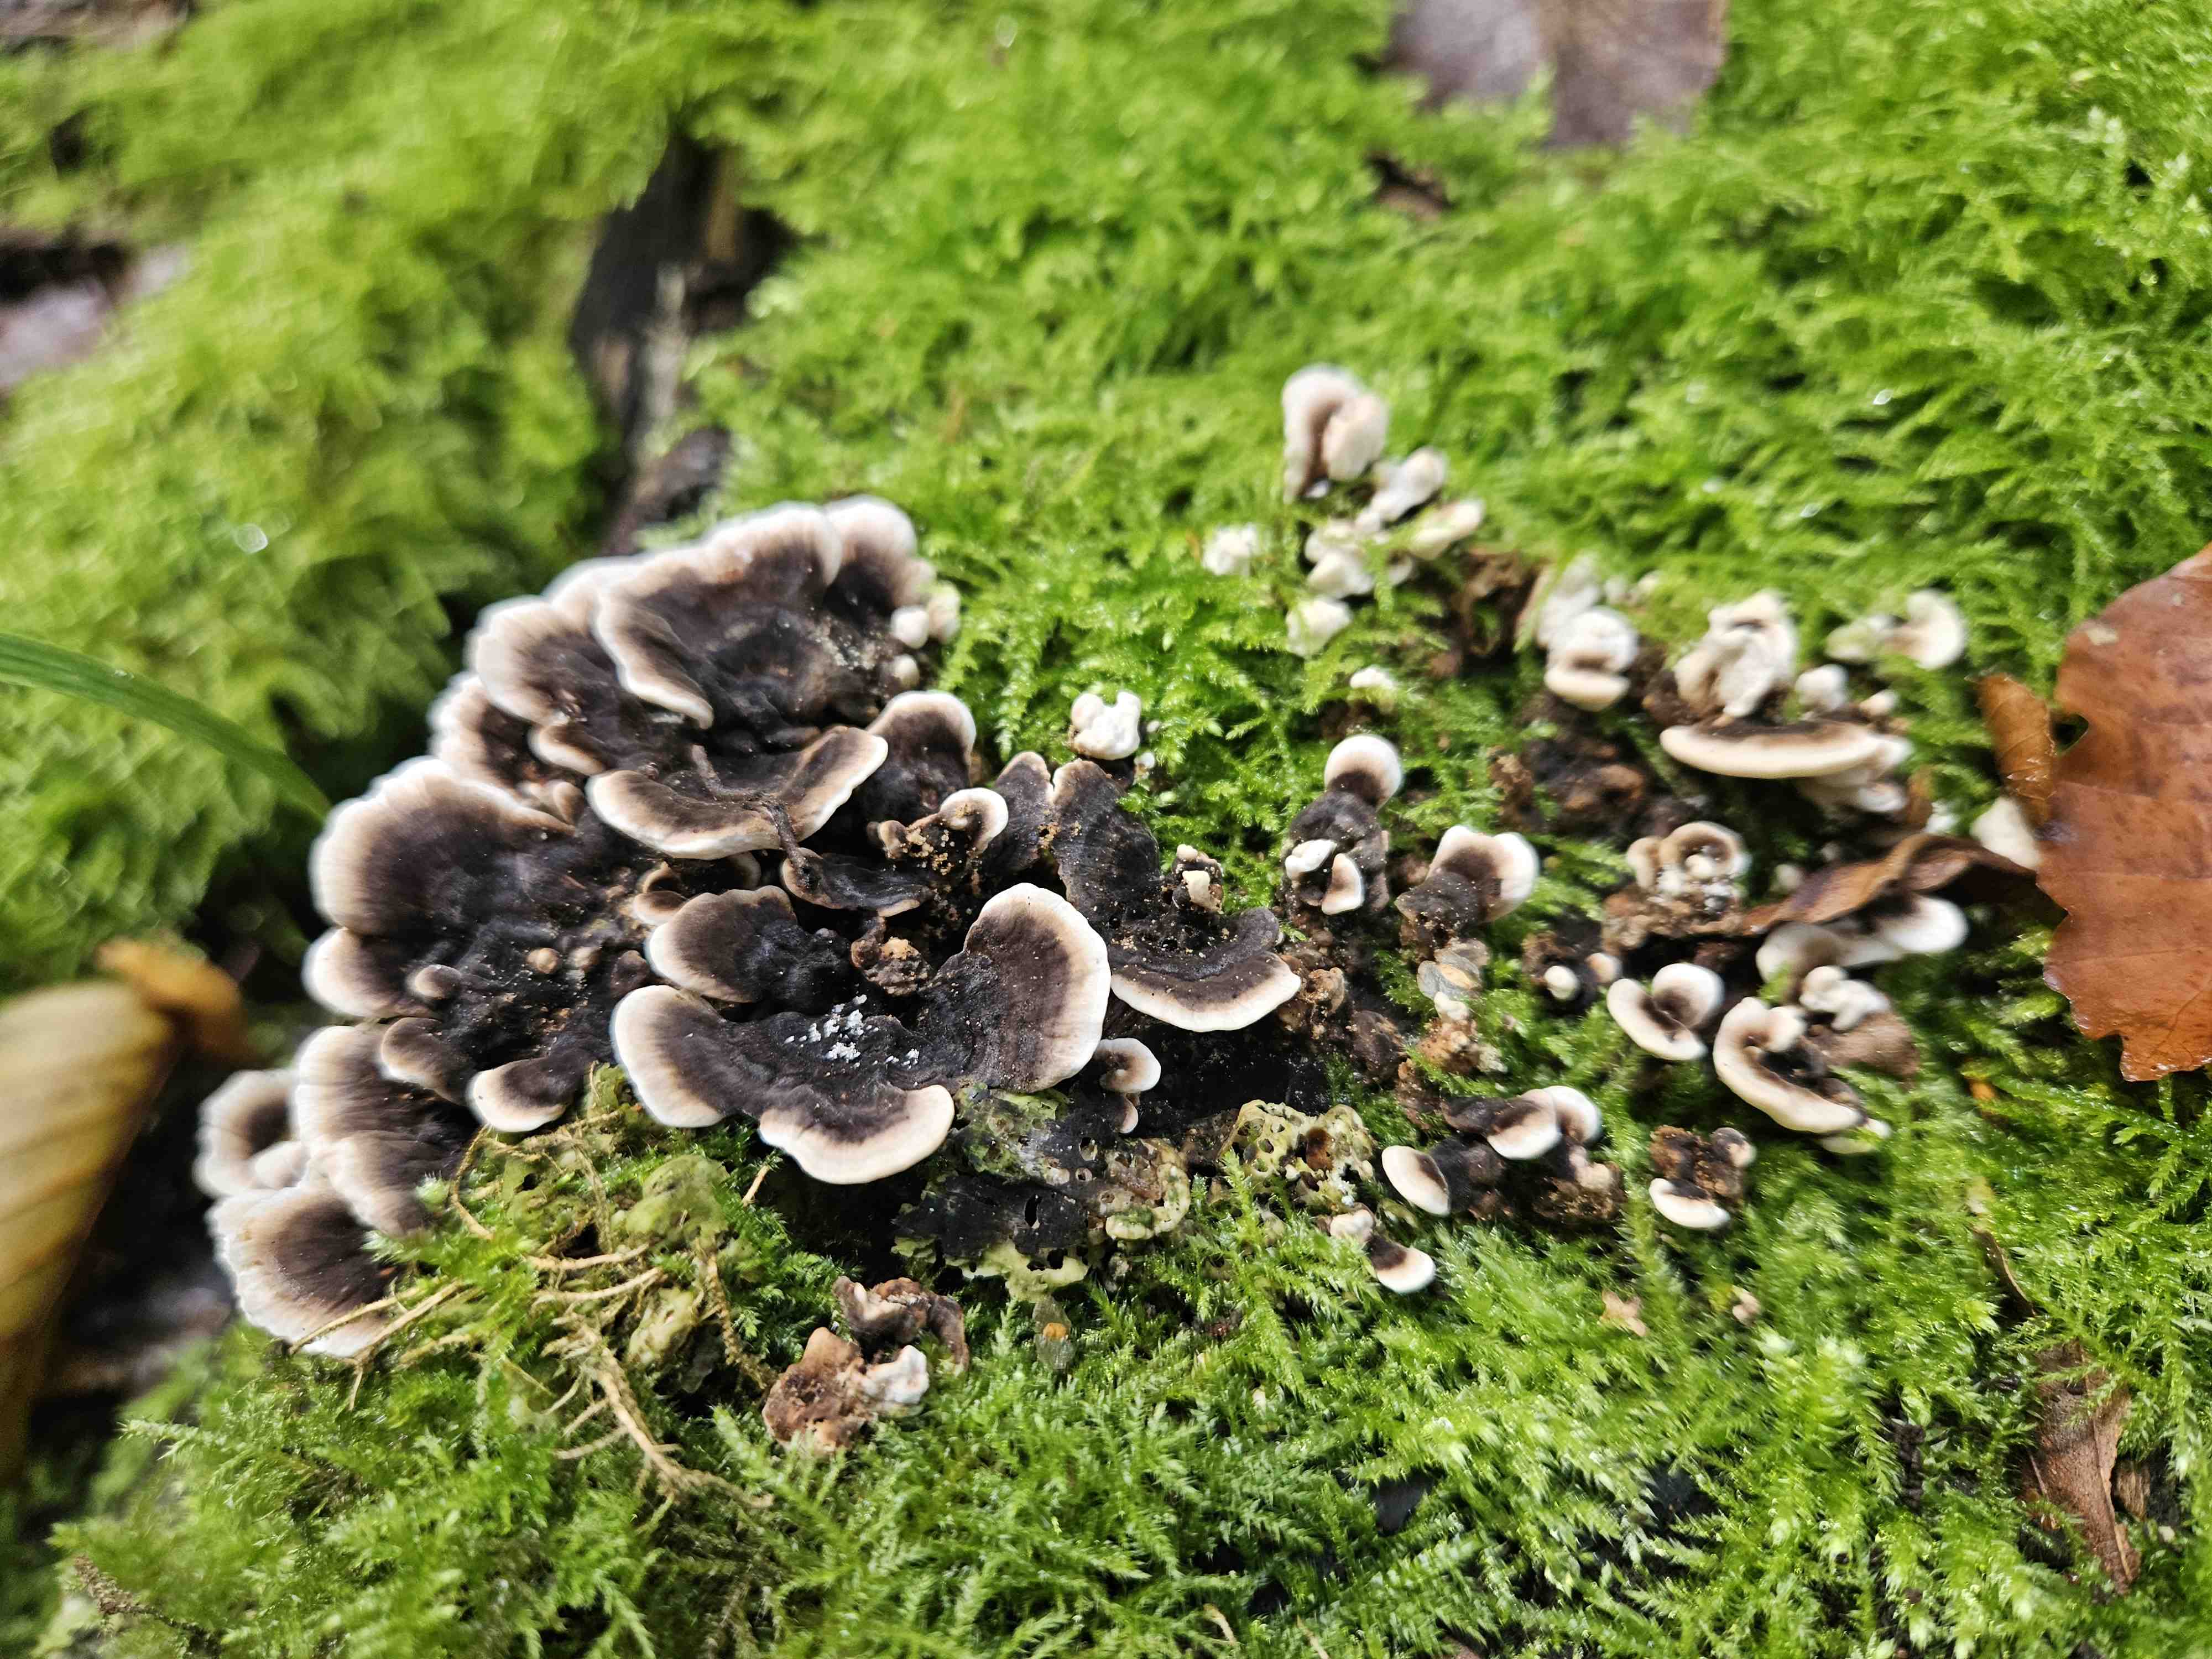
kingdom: Fungi
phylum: Basidiomycota
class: Agaricomycetes
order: Polyporales
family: Polyporaceae
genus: Trametes
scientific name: Trametes versicolor
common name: broget læderporesvamp
